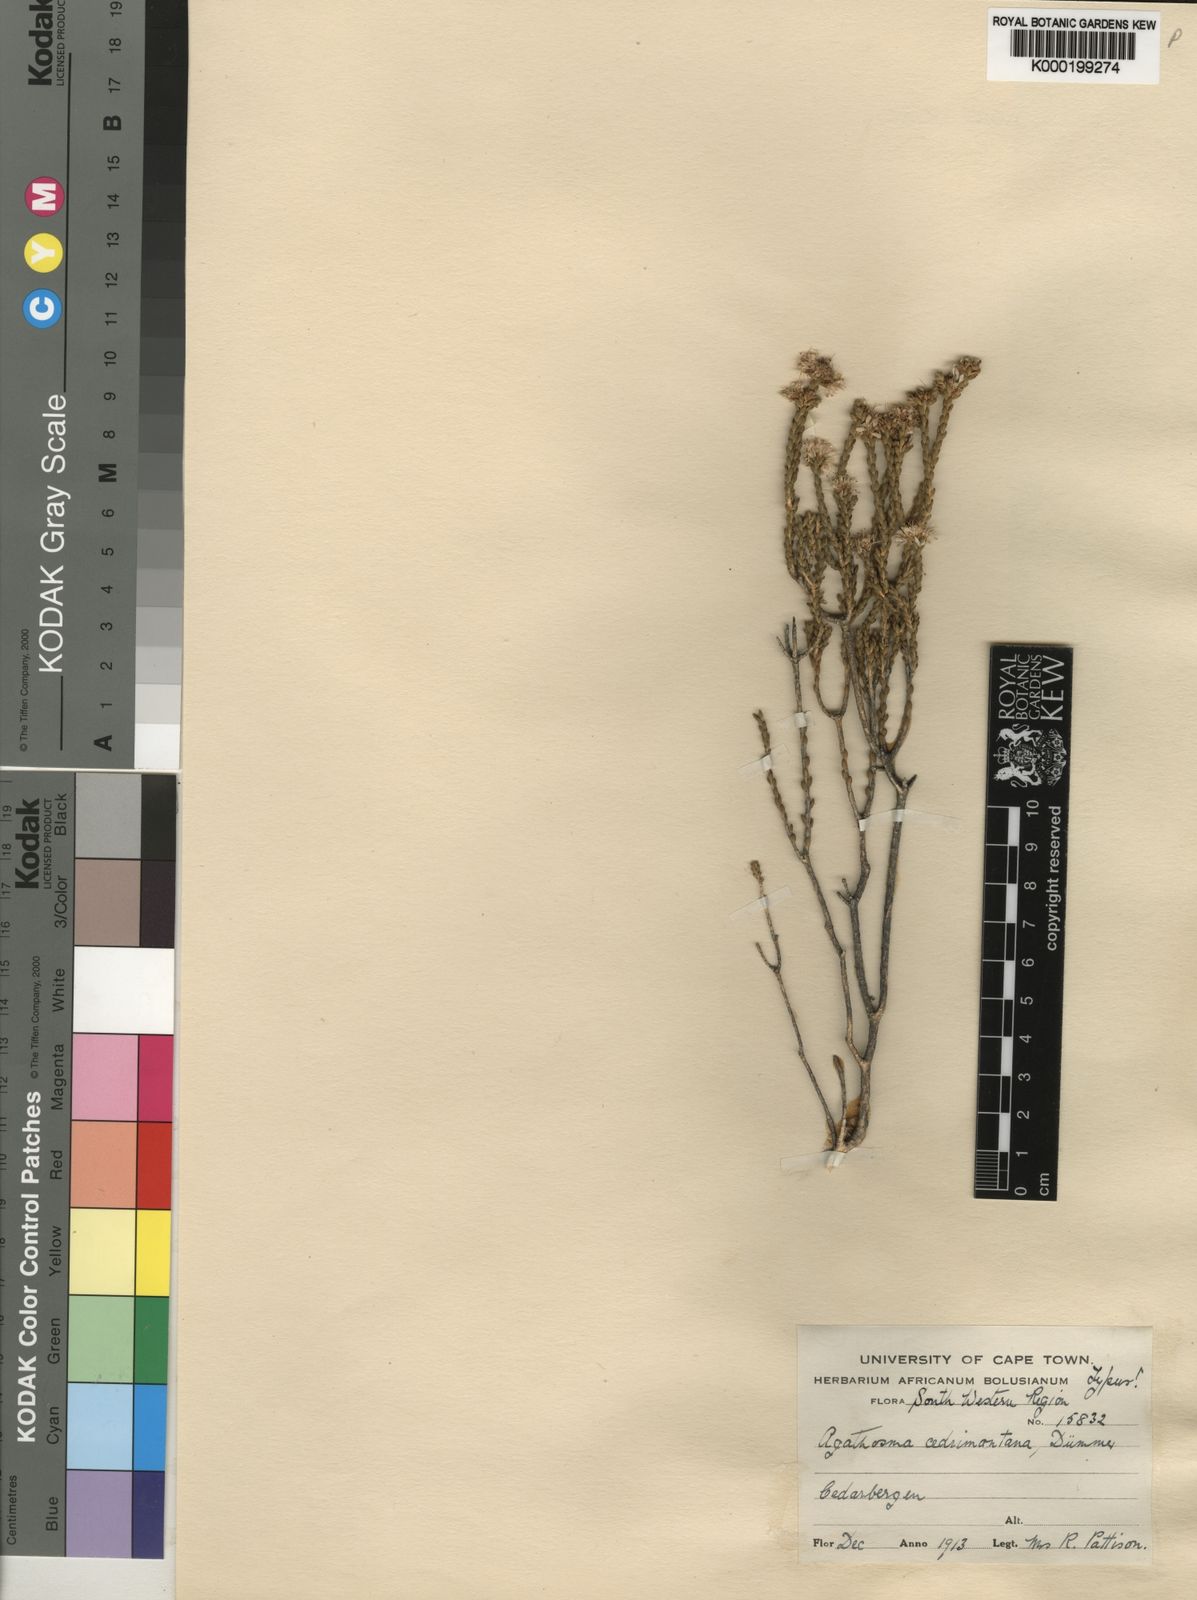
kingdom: Plantae
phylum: Tracheophyta
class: Magnoliopsida
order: Sapindales
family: Rutaceae
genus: Agathosma
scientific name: Agathosma cedrimontana
